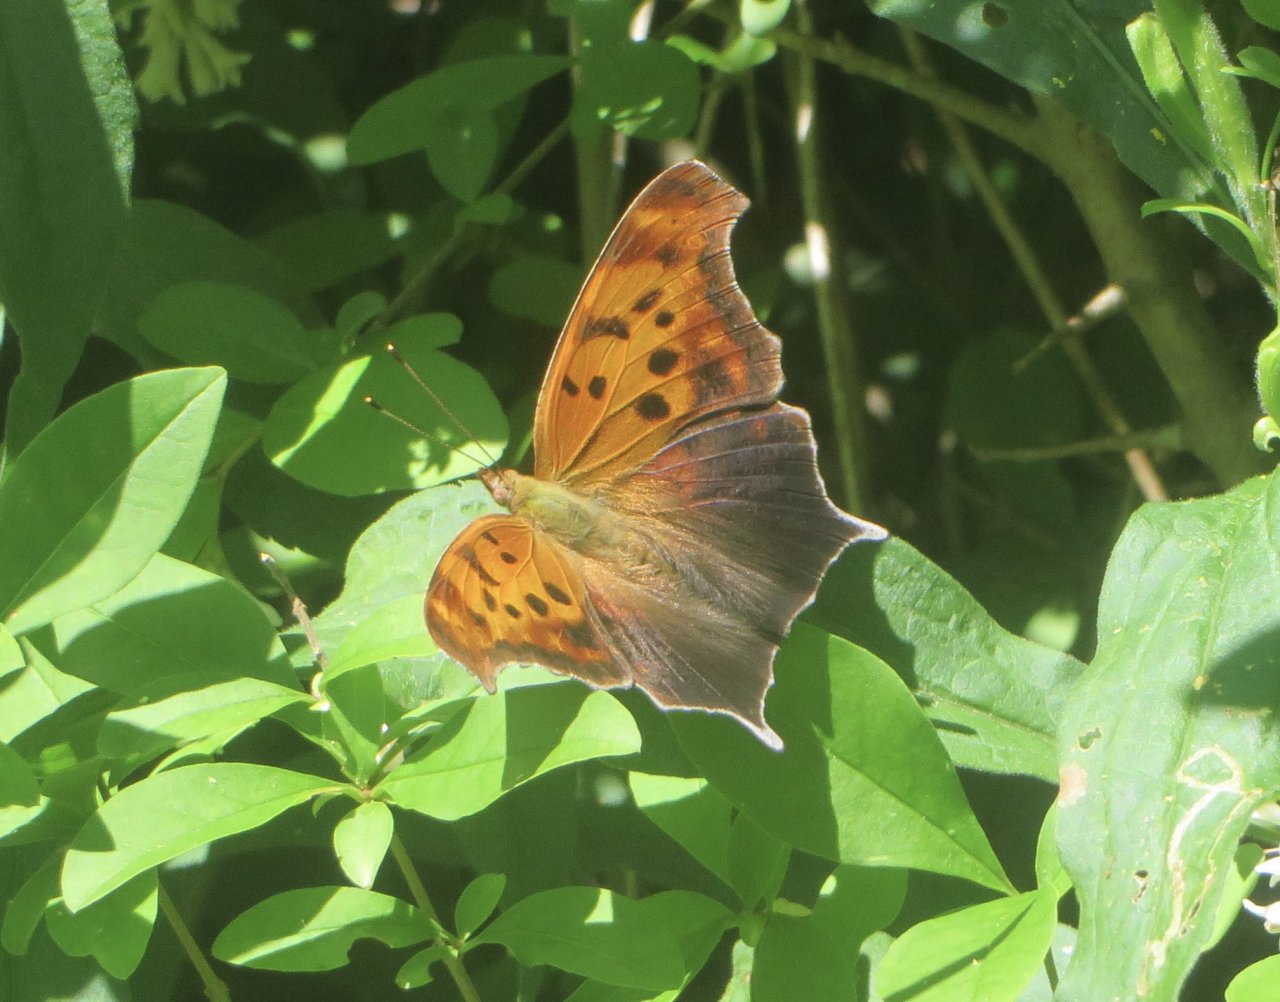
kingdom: Animalia
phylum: Arthropoda
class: Insecta
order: Lepidoptera
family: Nymphalidae
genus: Polygonia
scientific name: Polygonia interrogationis
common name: Question Mark
